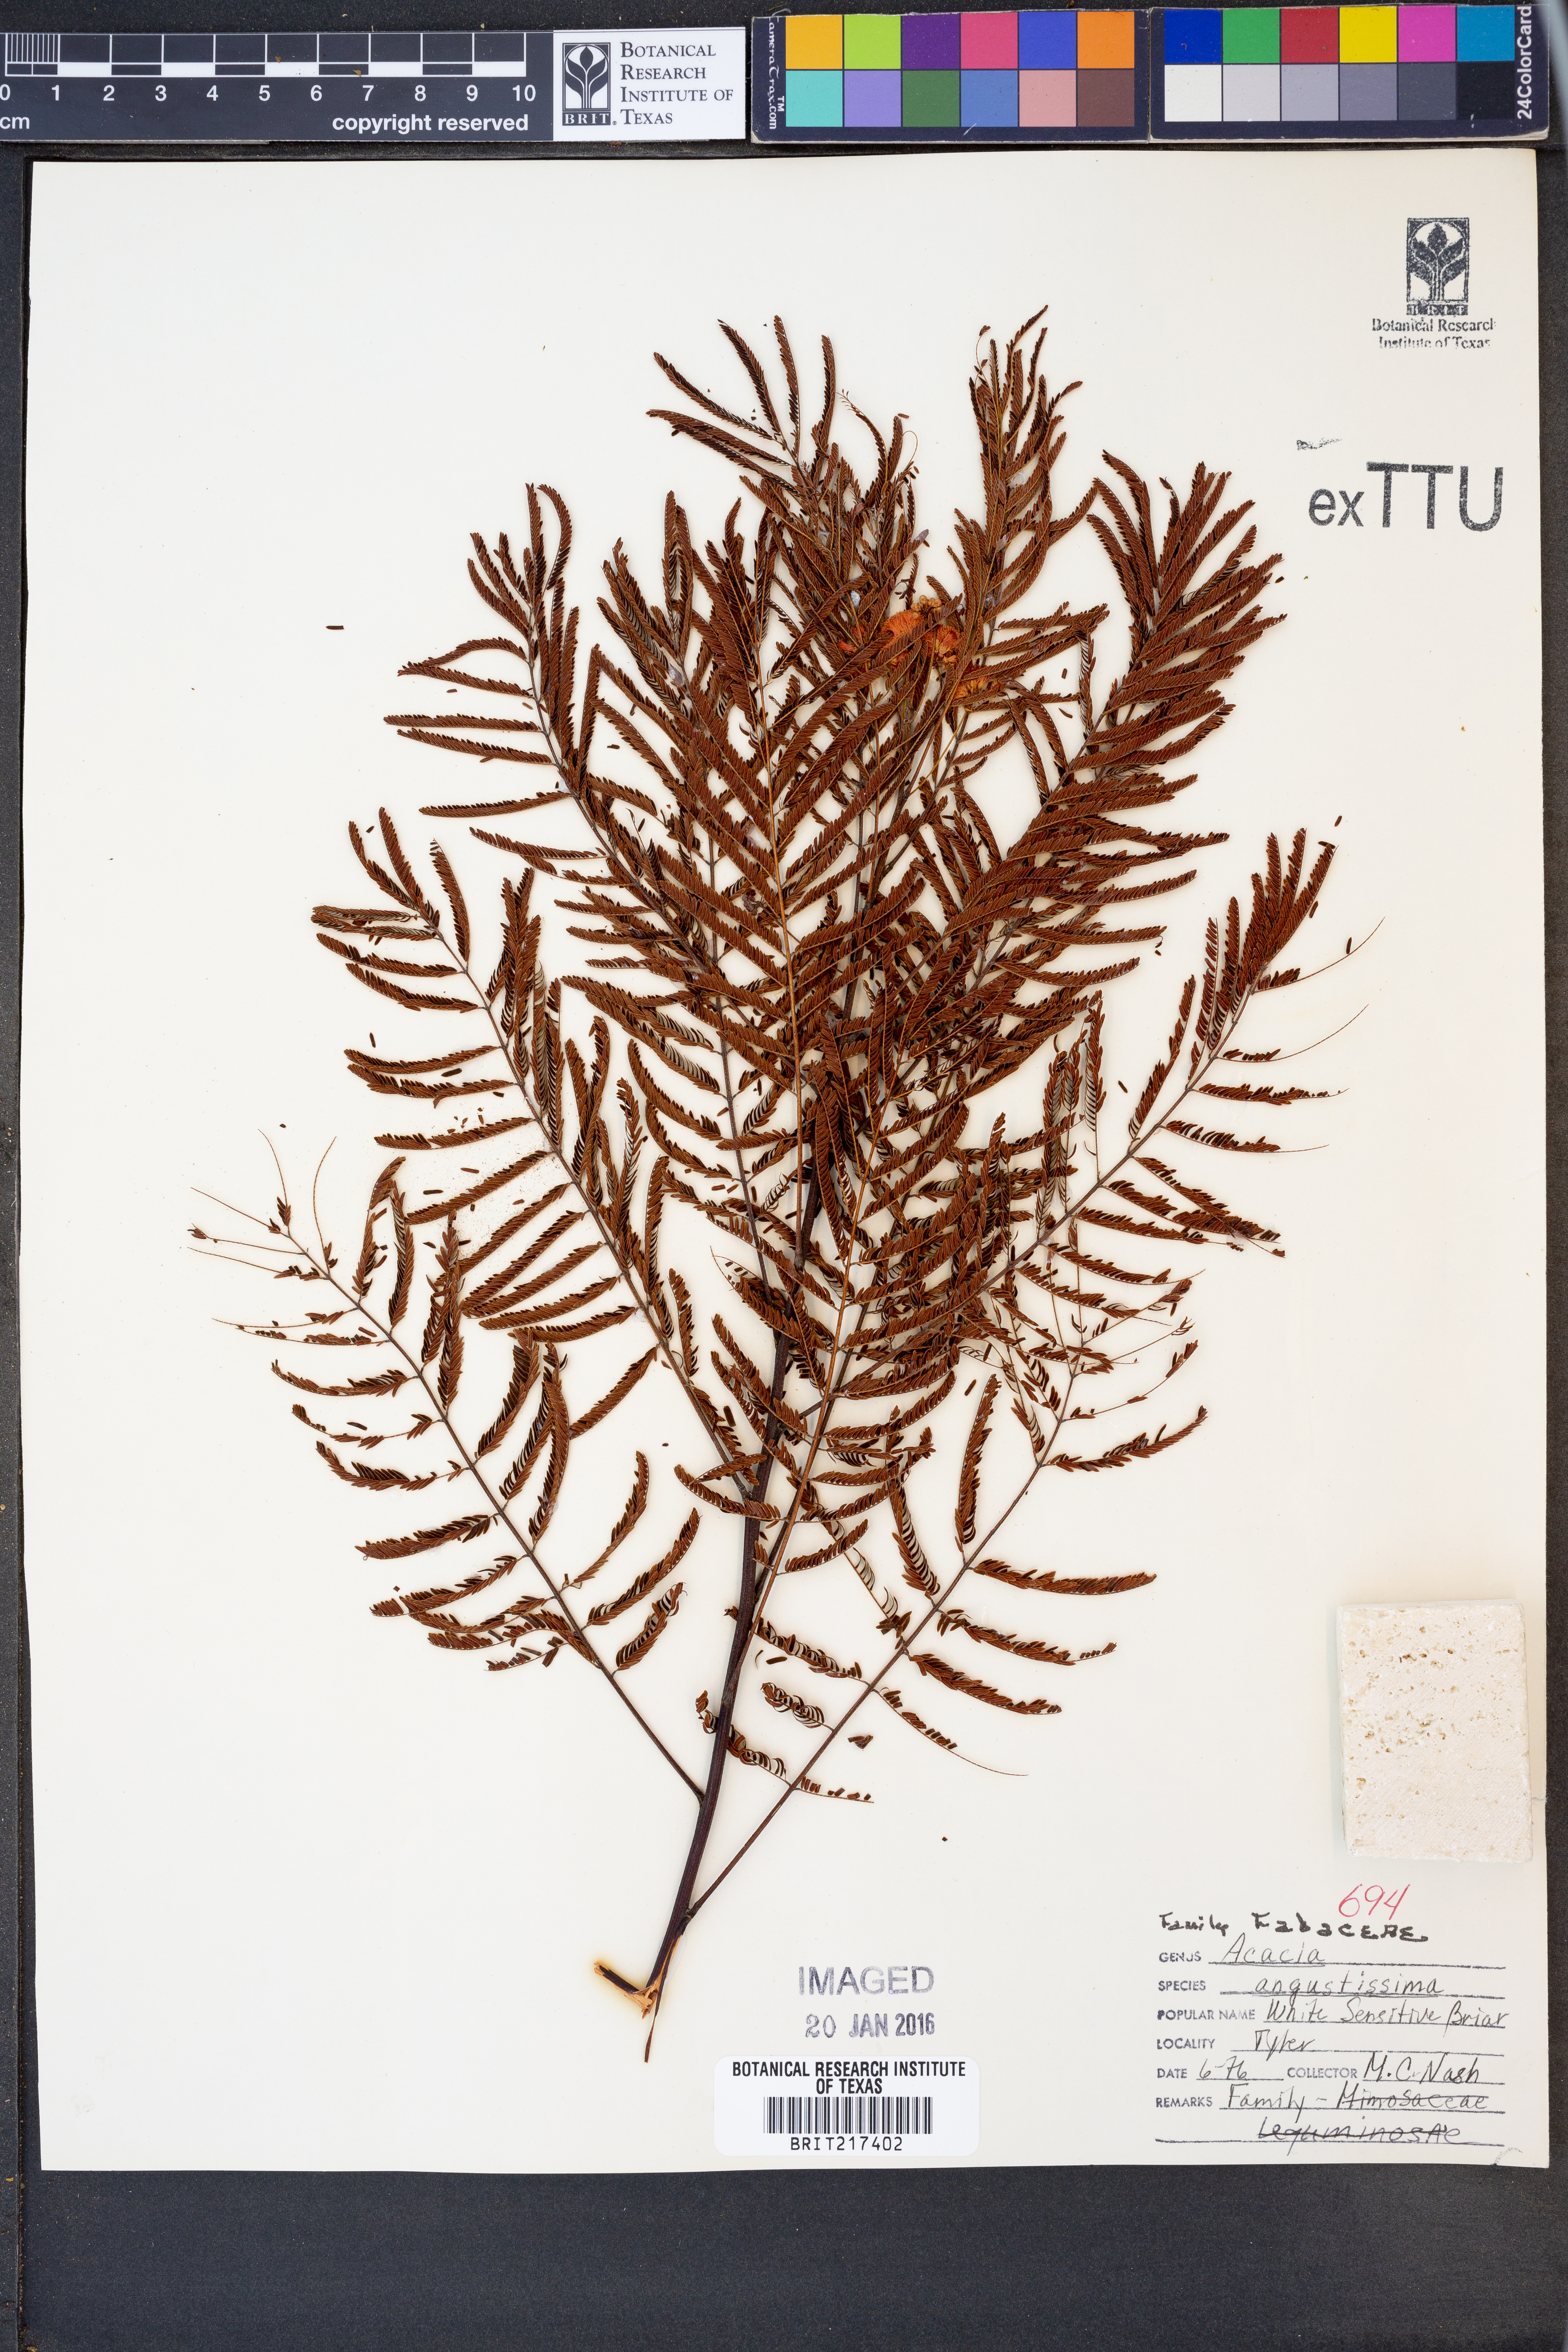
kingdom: Plantae
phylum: Tracheophyta
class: Magnoliopsida
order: Fabales
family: Fabaceae
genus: Acaciella
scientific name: Acaciella angustissima
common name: Prairie acacia
